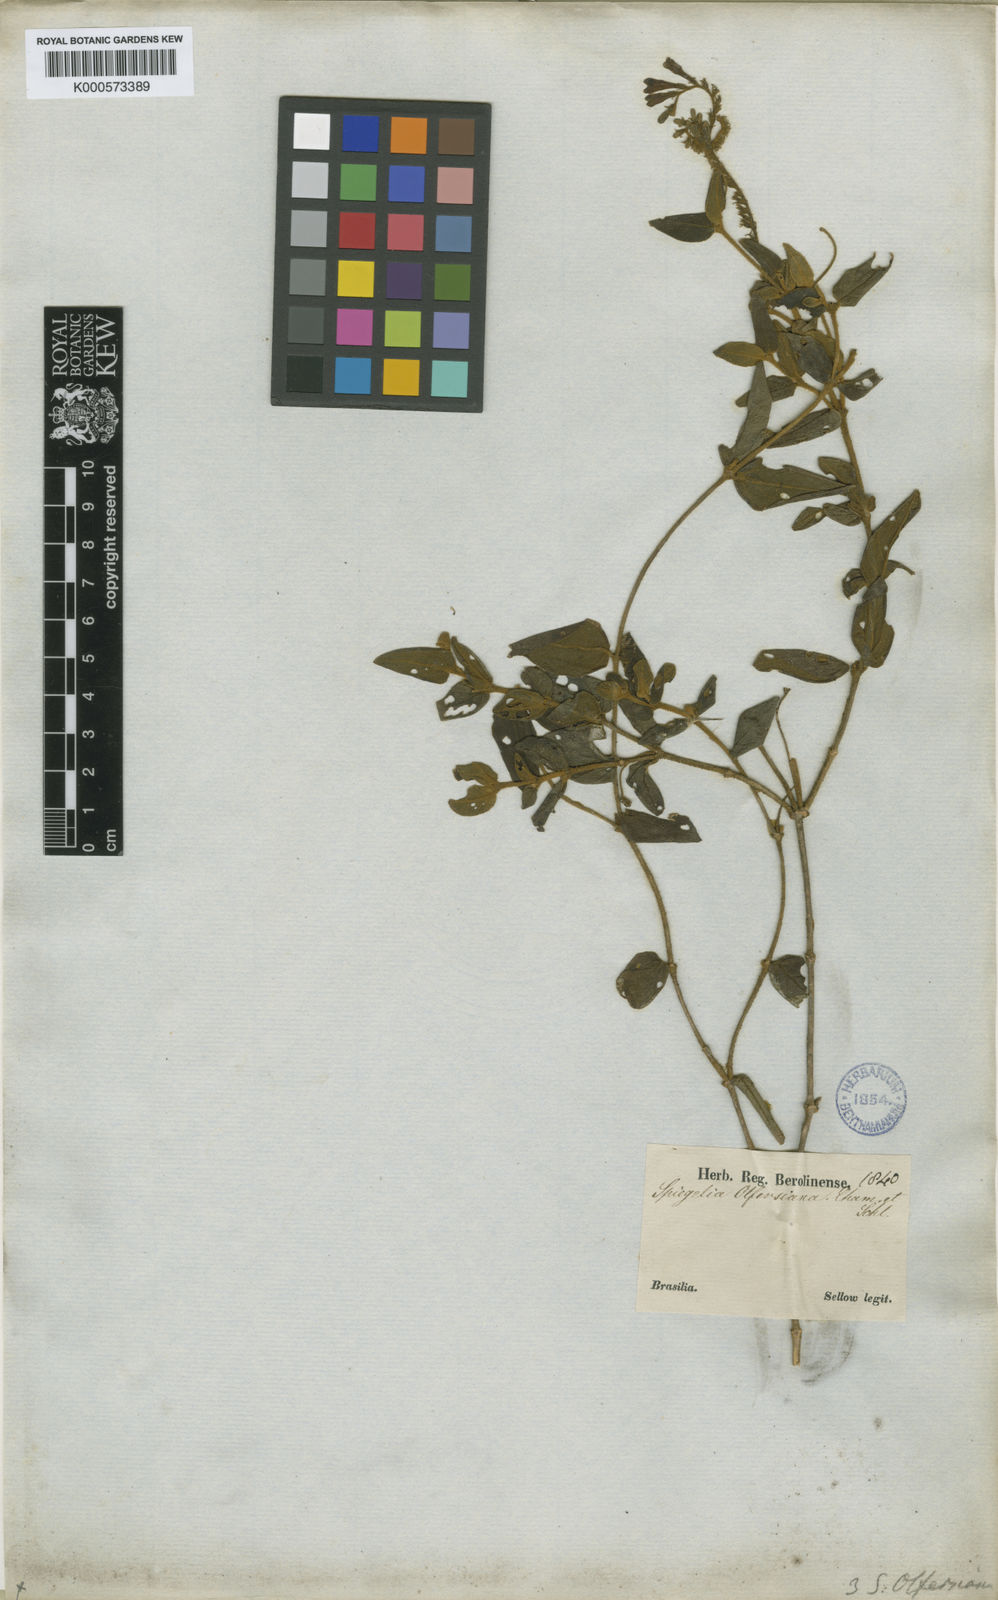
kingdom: Plantae
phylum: Tracheophyta
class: Magnoliopsida
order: Gentianales
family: Loganiaceae
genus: Spigelia
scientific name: Spigelia olfersiana
